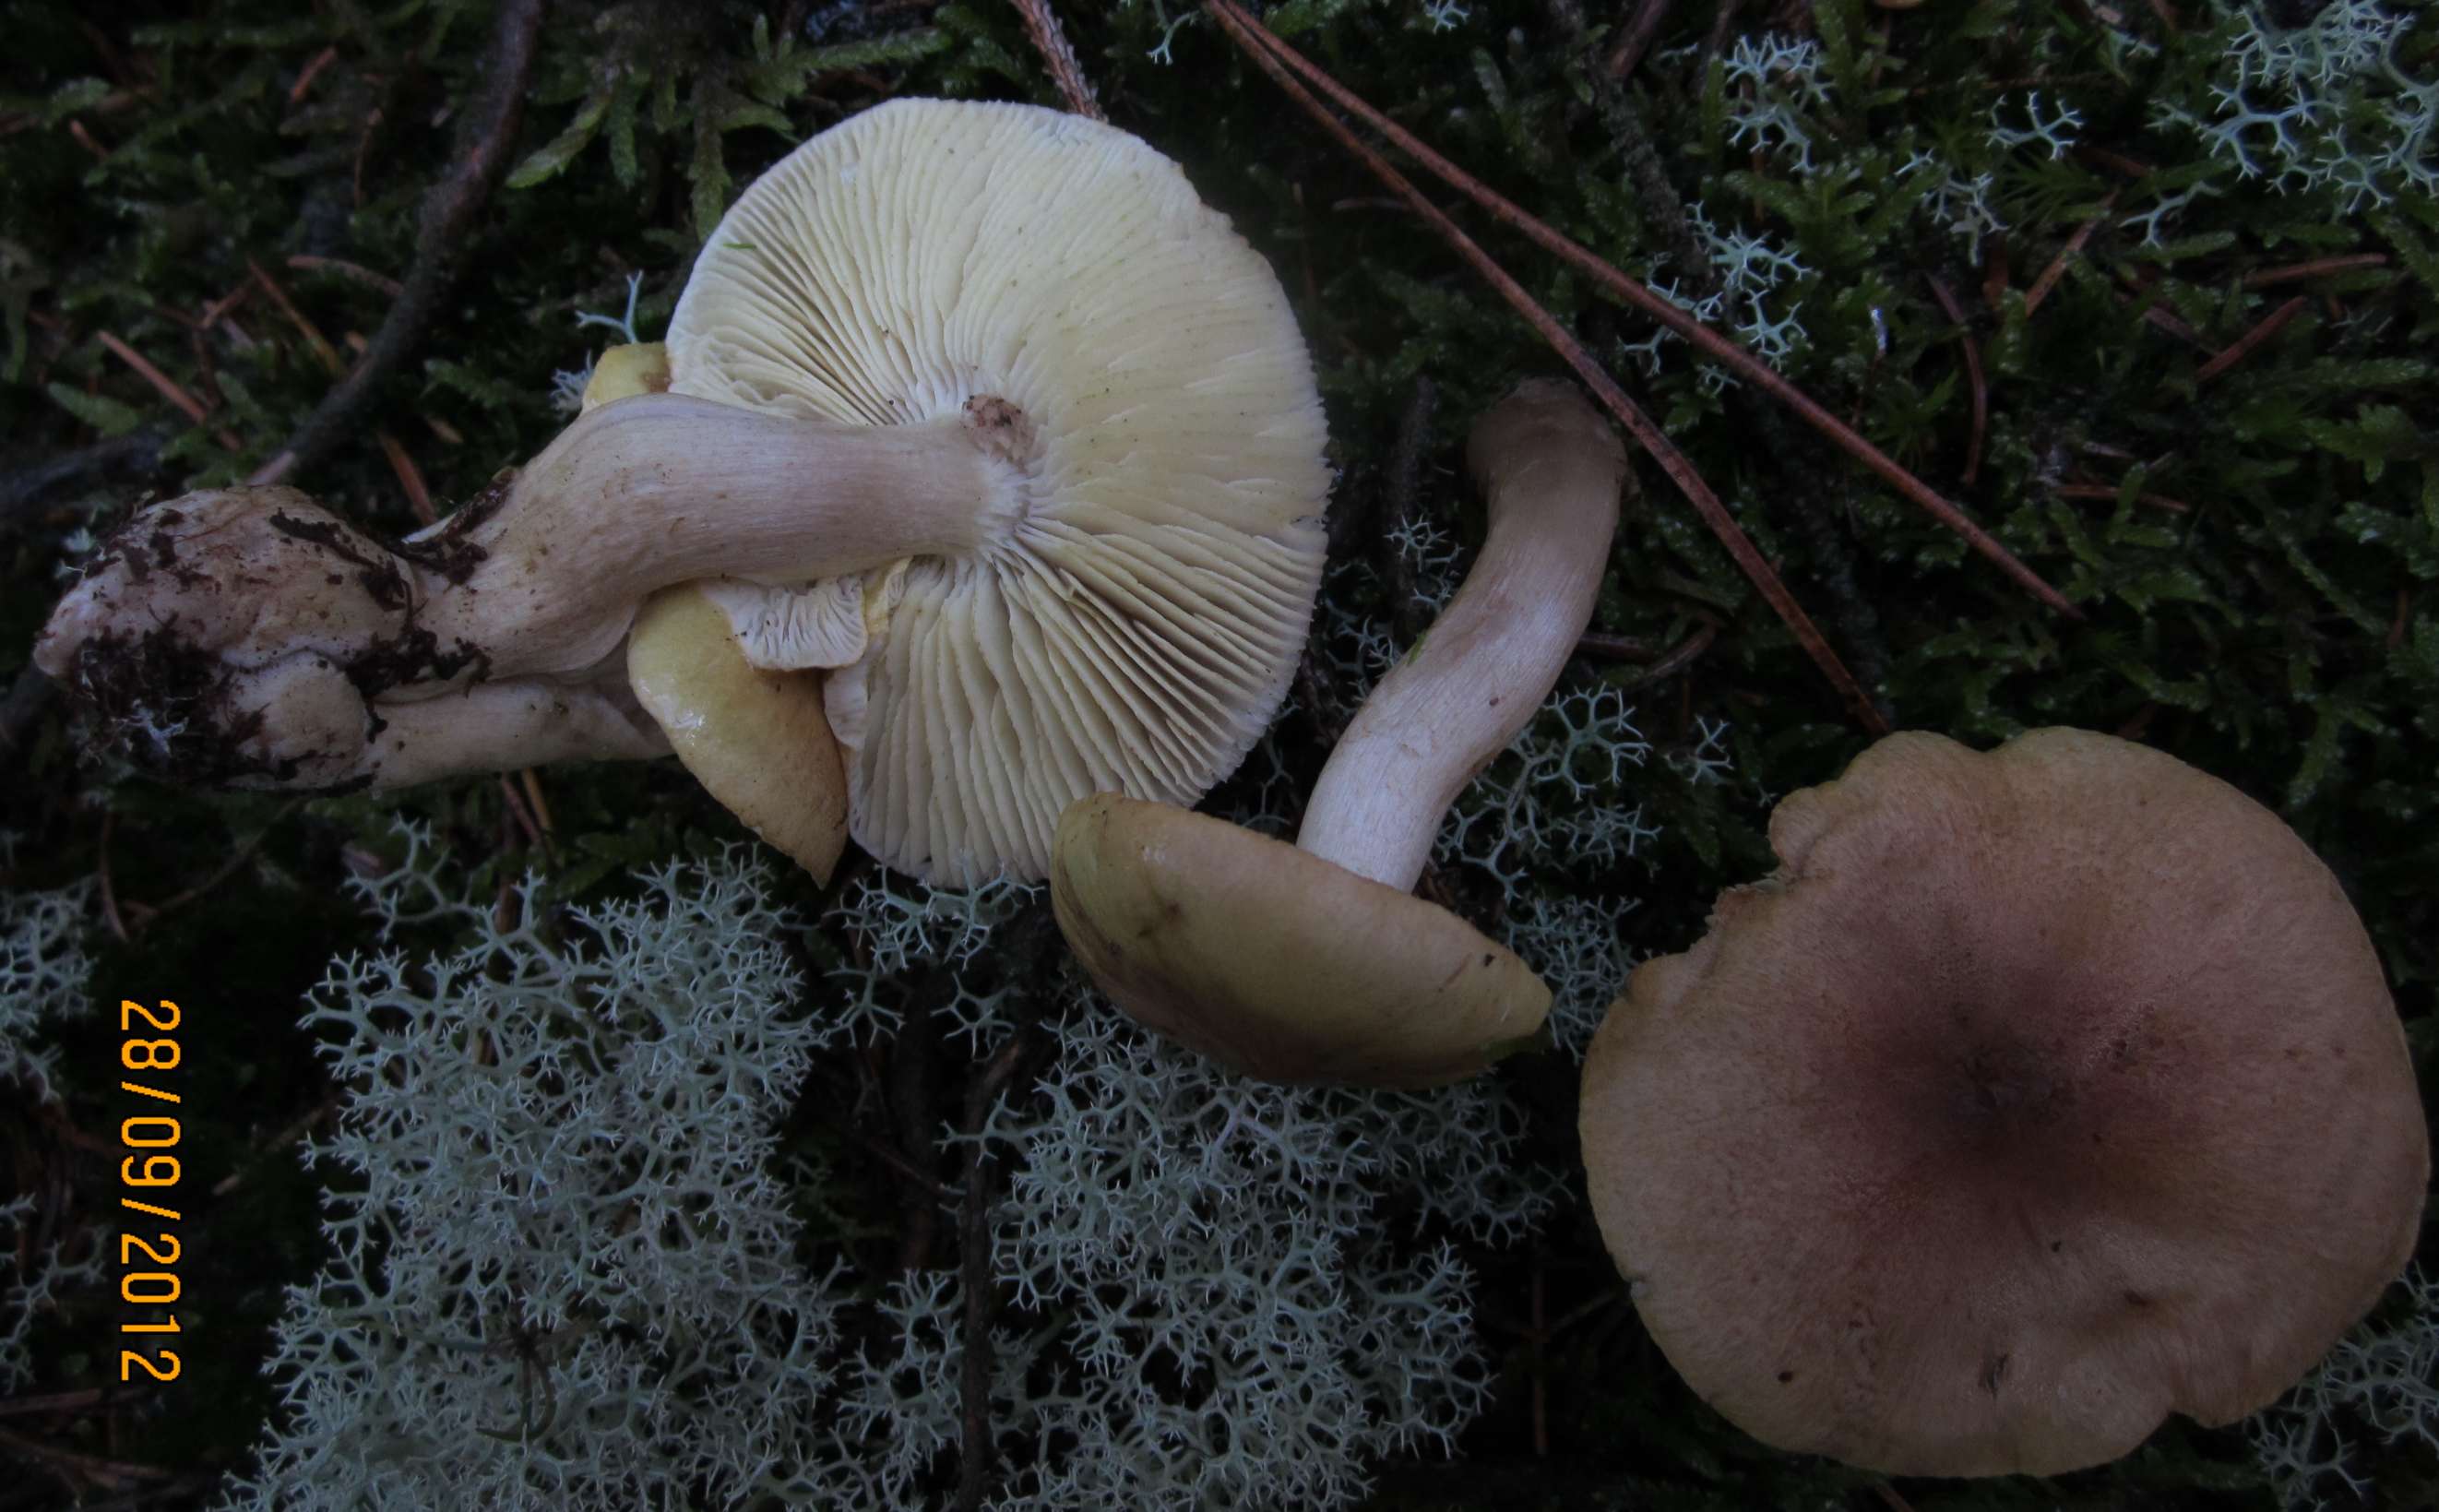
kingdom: Fungi
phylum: Basidiomycota
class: Agaricomycetes
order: Agaricales
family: Tricholomataceae
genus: Tricholoma
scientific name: Tricholoma aestuans
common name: kegle-ridderhat
